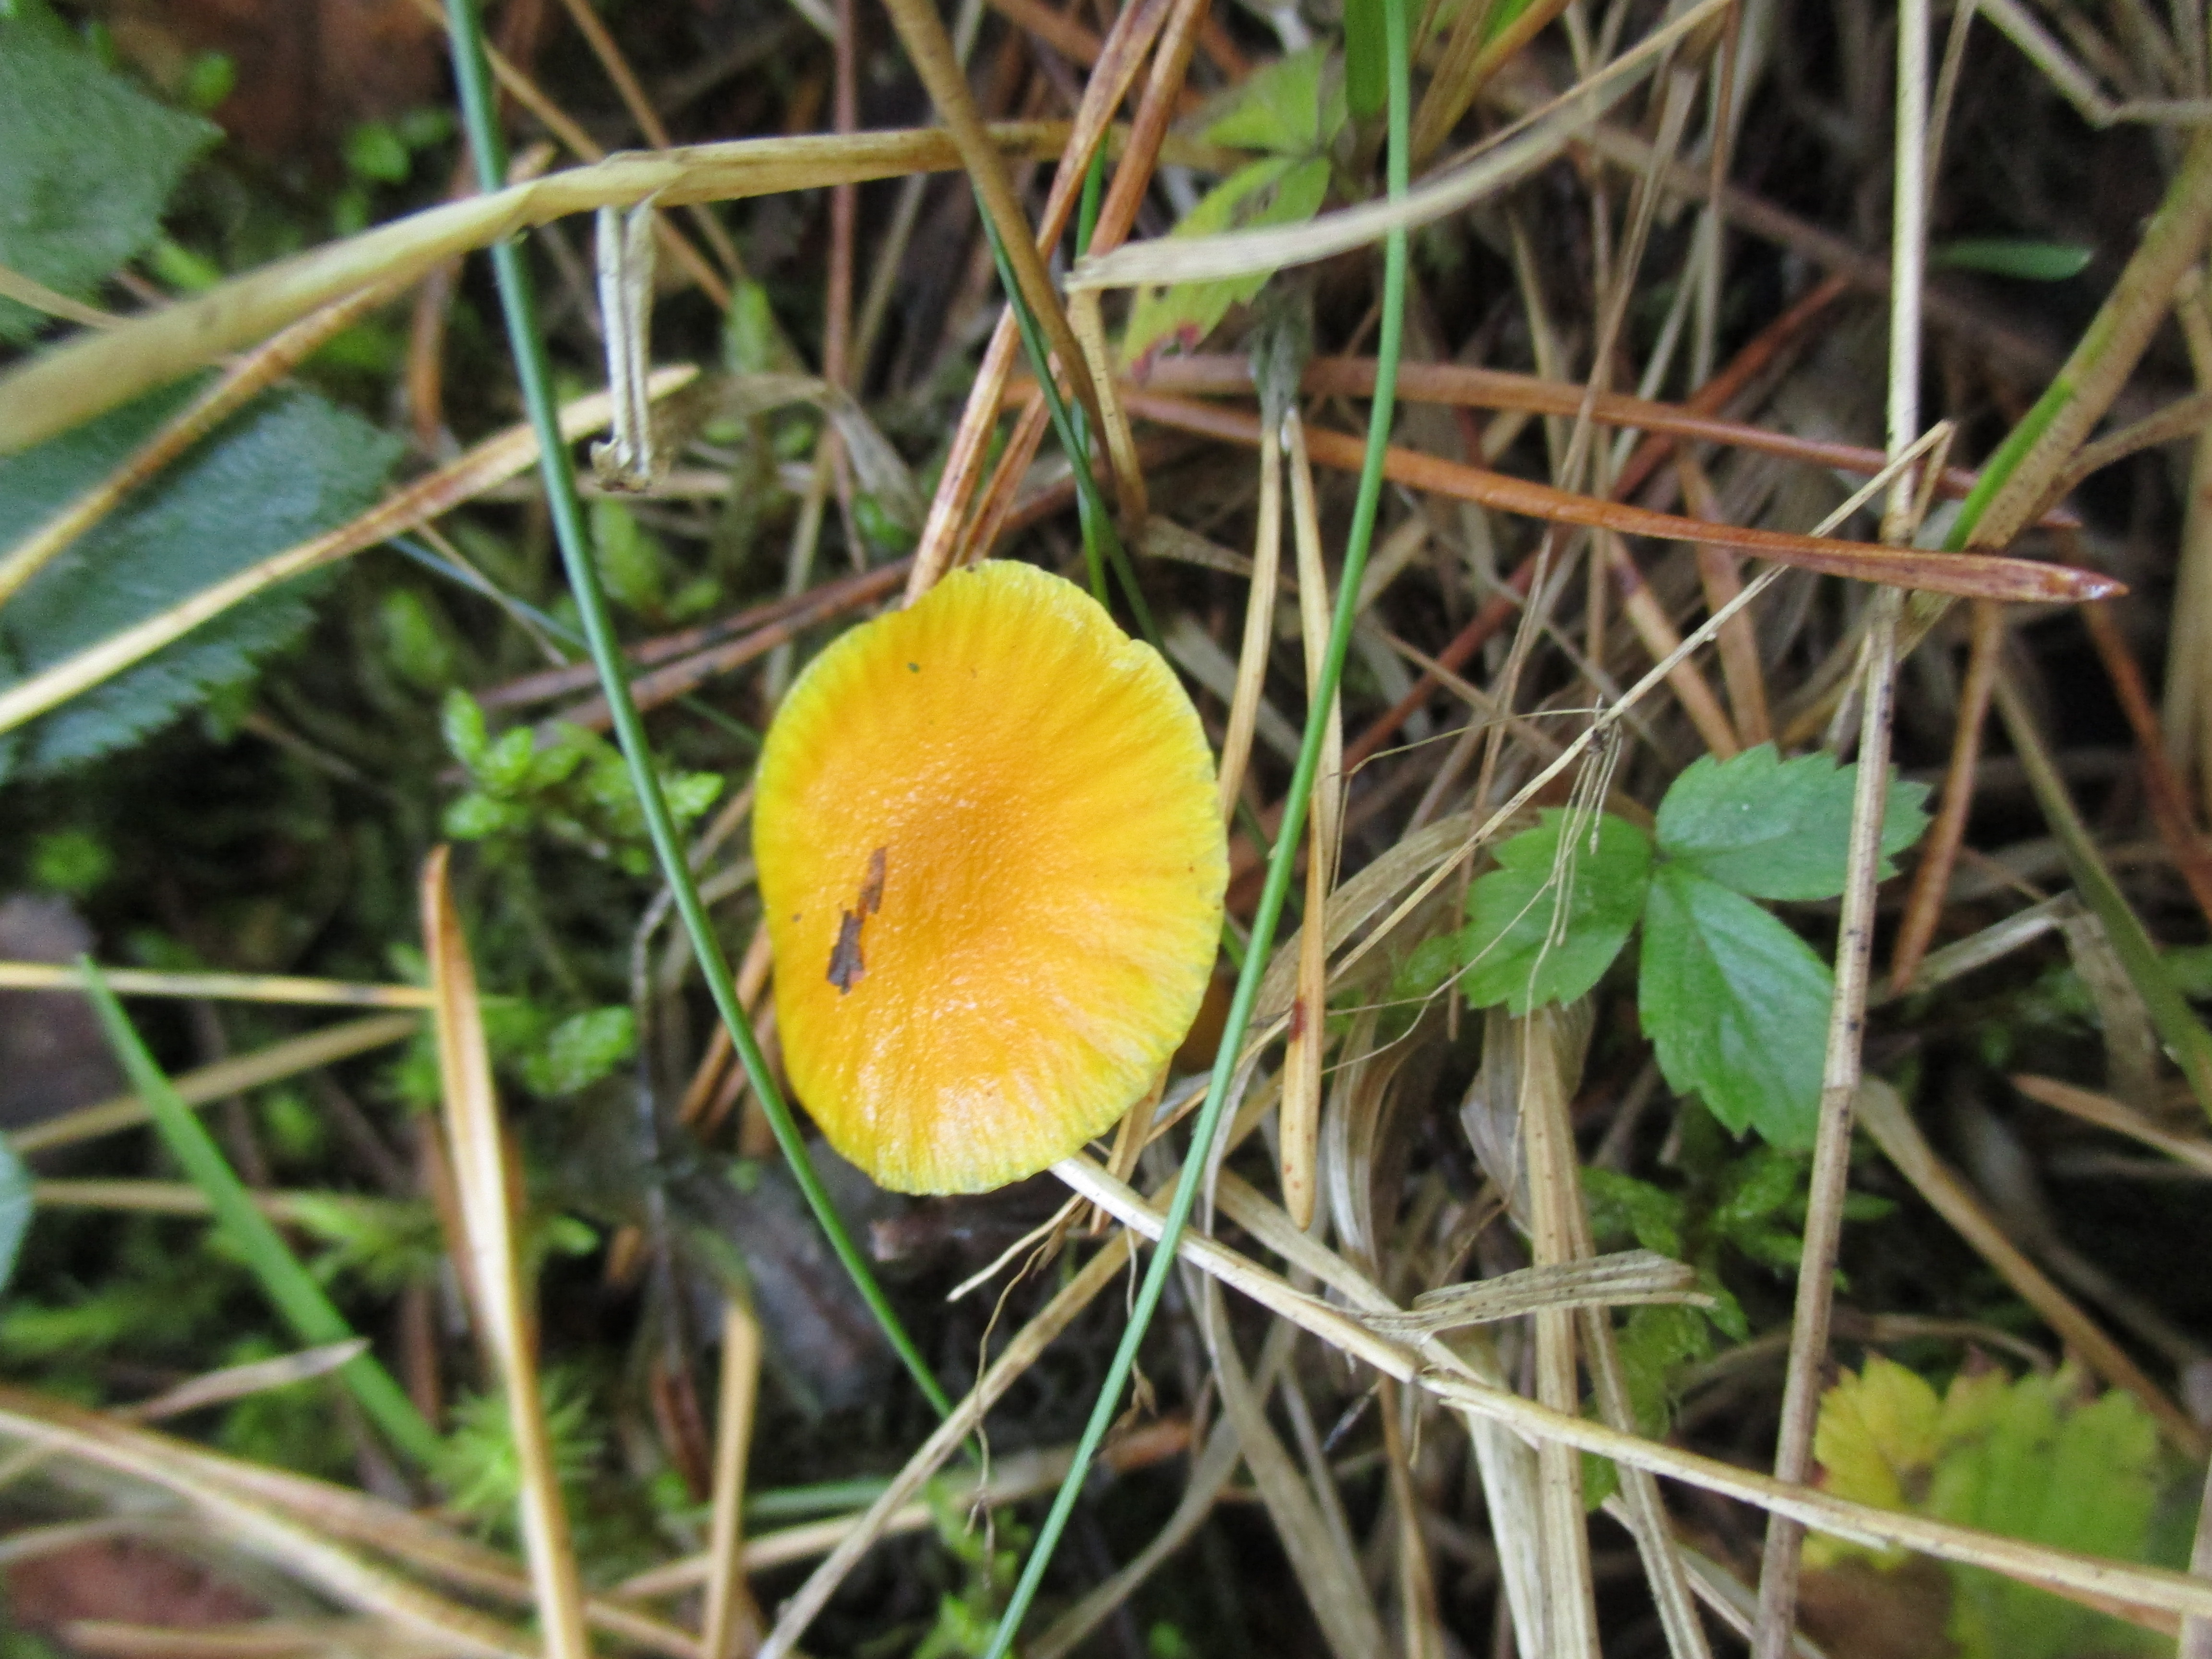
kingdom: Fungi
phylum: Basidiomycota
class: Agaricomycetes
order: Agaricales
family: Hygrophoraceae
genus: Hygrocybe
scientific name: Hygrocybe chlorophana
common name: Golden waxcap
